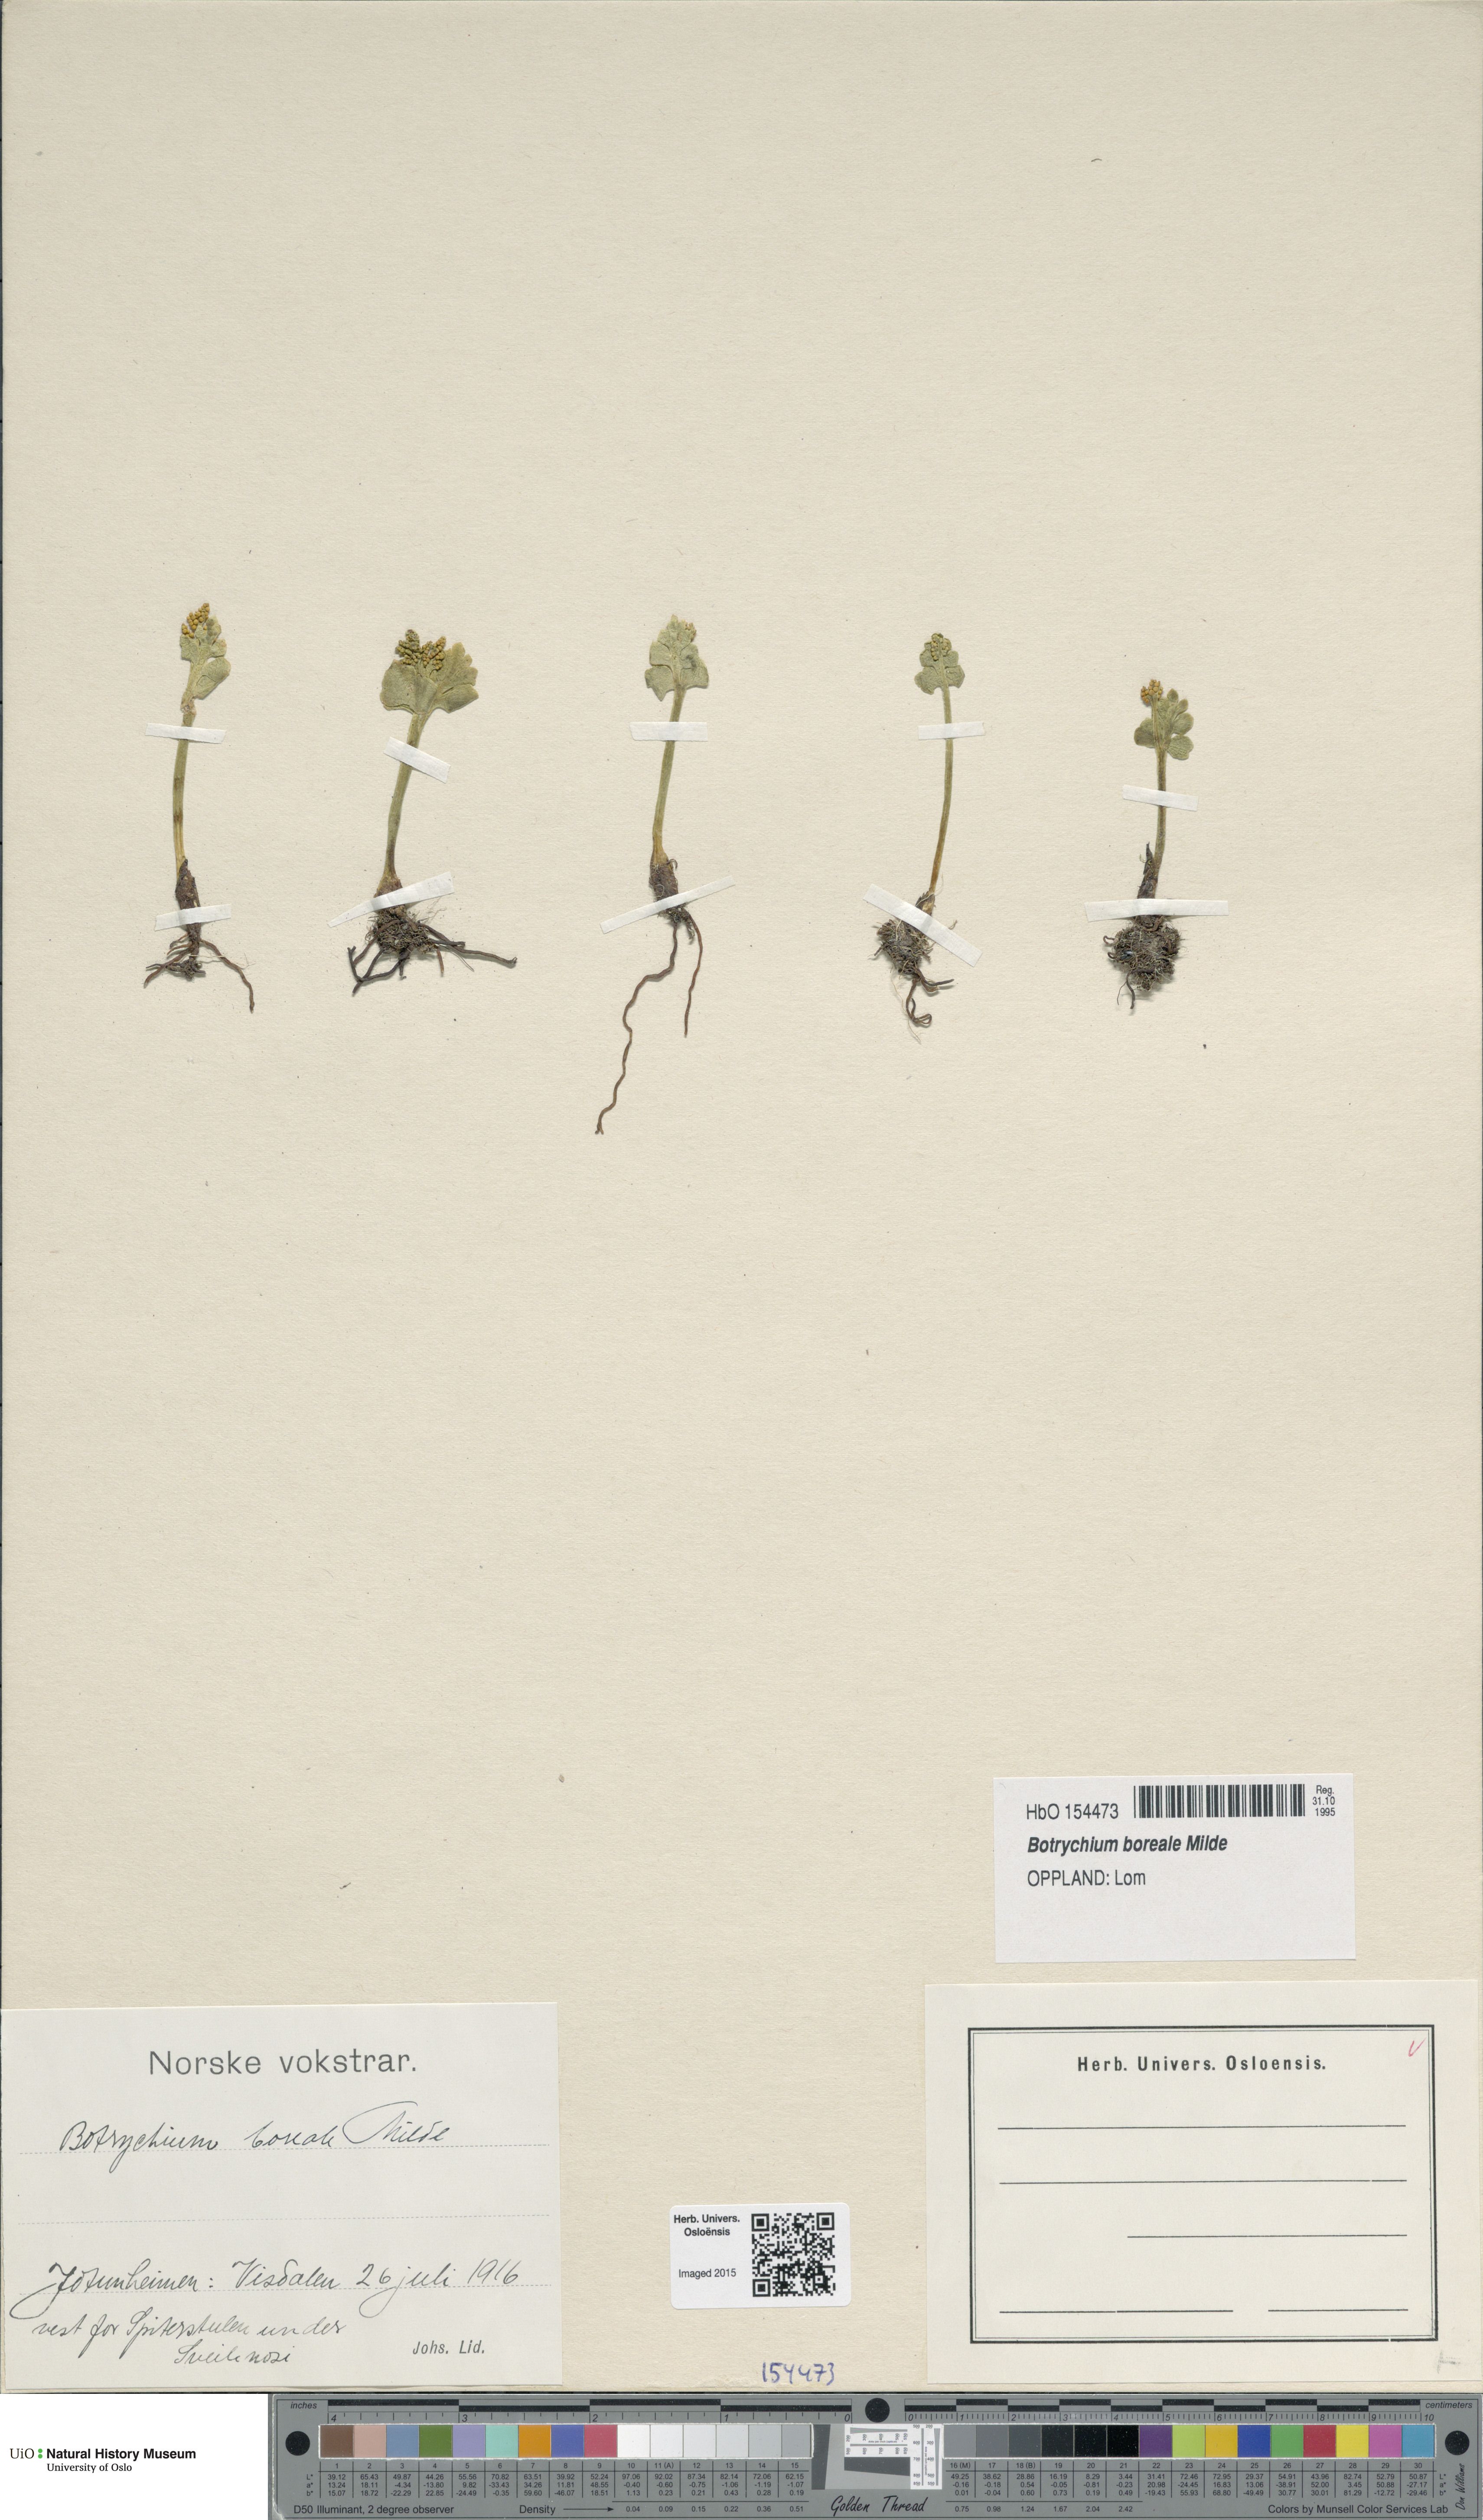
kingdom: Plantae
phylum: Tracheophyta
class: Polypodiopsida
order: Ophioglossales
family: Ophioglossaceae
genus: Botrychium
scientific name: Botrychium boreale
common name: Boreal moonwort
